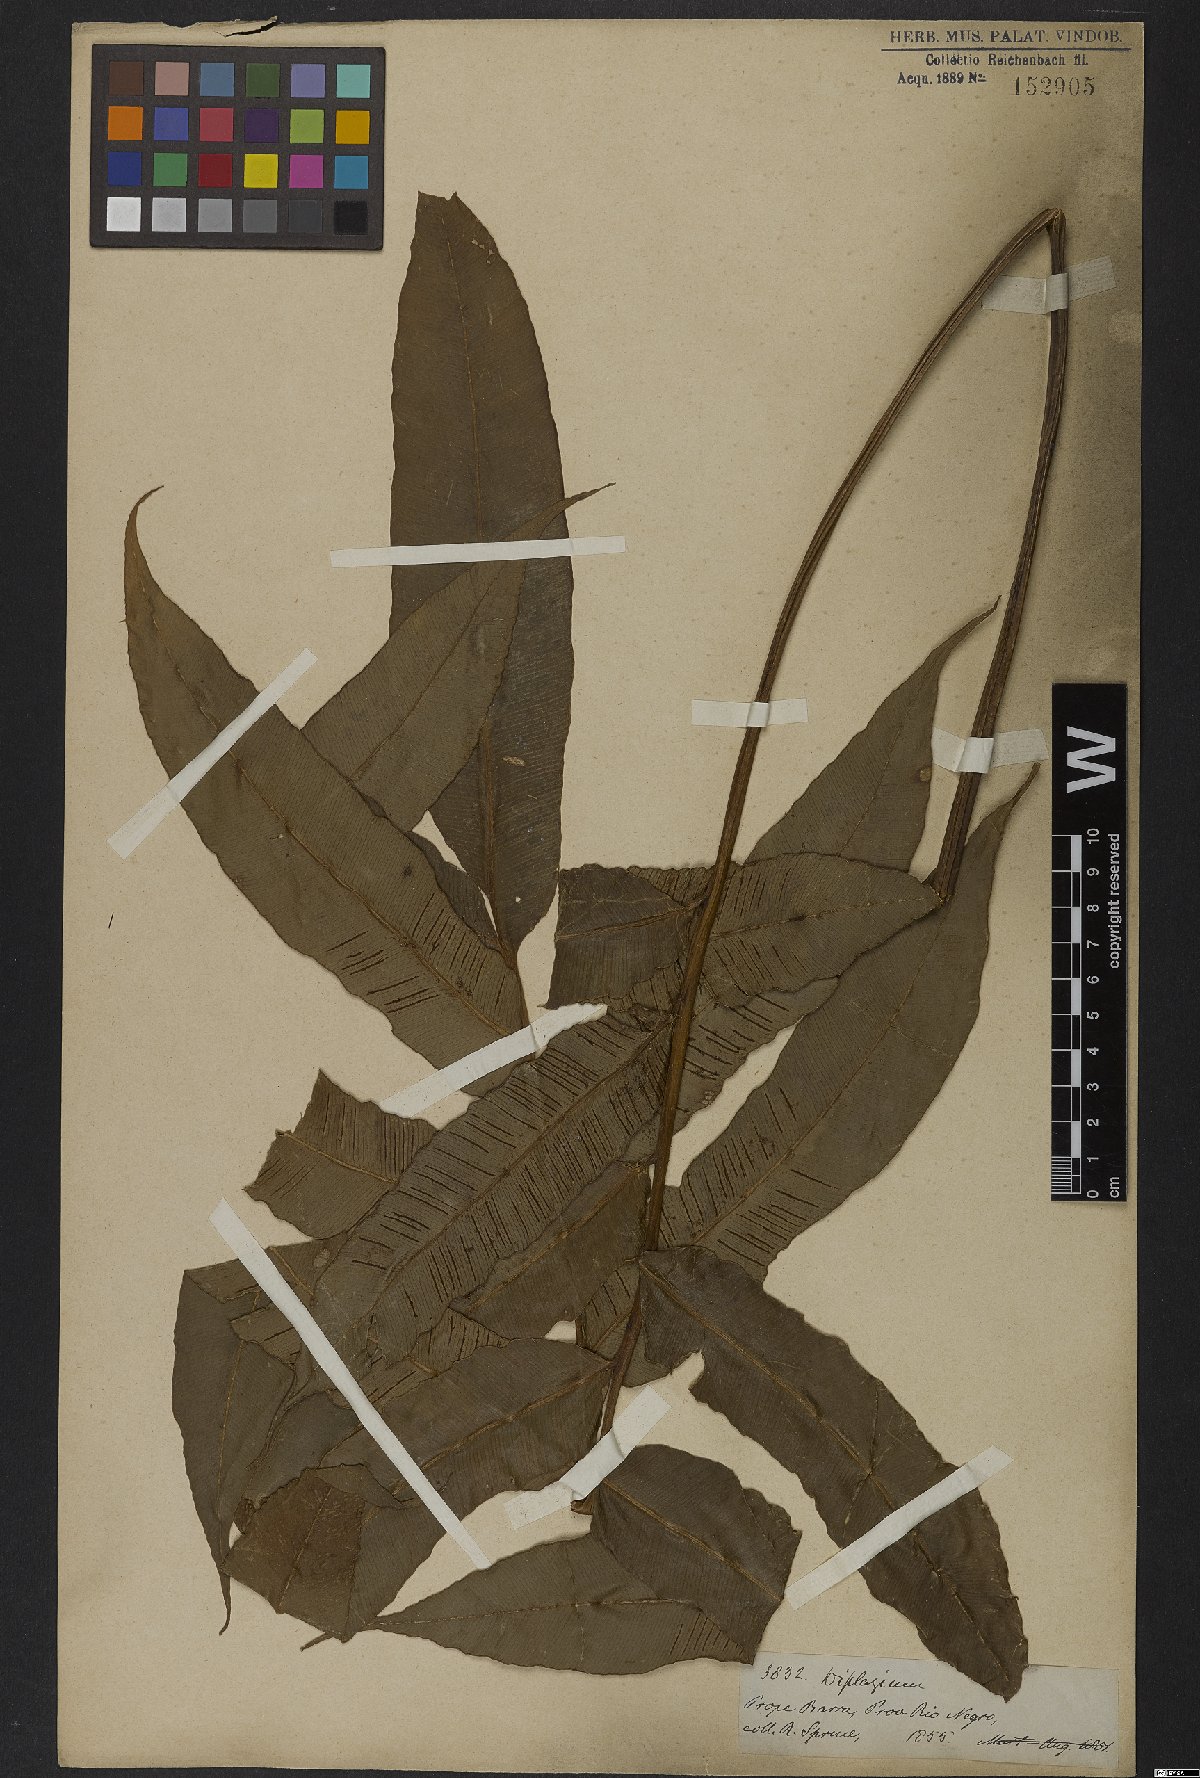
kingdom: Plantae
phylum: Tracheophyta
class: Polypodiopsida
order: Polypodiales
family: Athyriaceae
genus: Diplazium
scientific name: Diplazium
